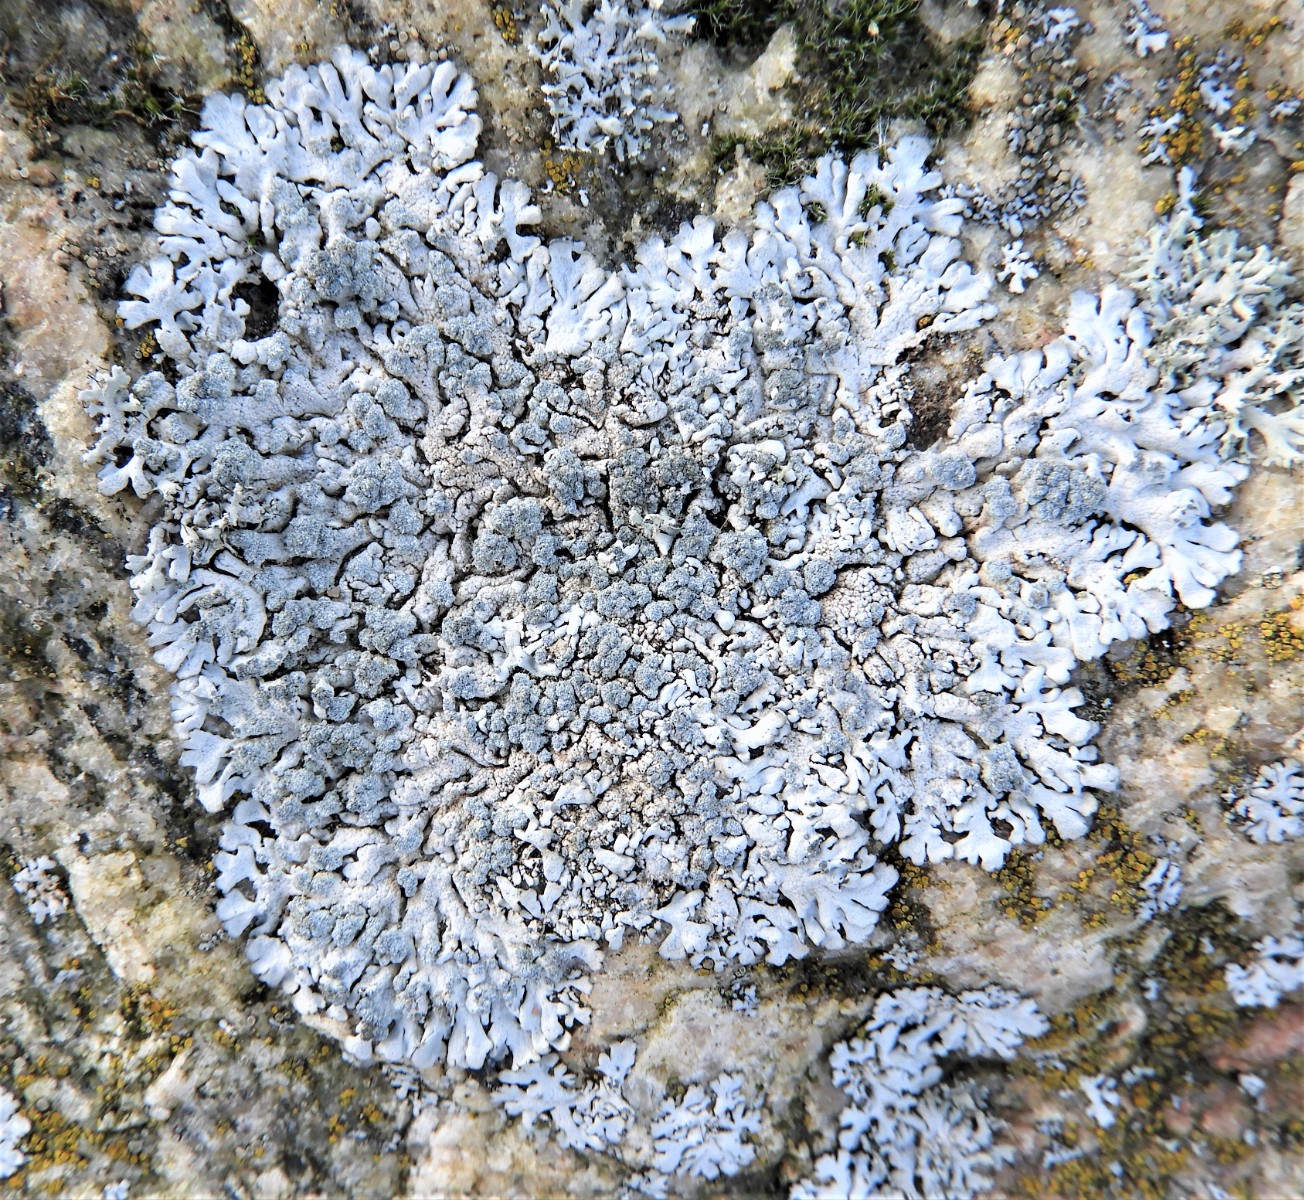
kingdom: Fungi
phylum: Ascomycota
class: Lecanoromycetes
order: Caliciales
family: Physciaceae
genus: Physcia
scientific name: Physcia caesia
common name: blågrå rosetlav
